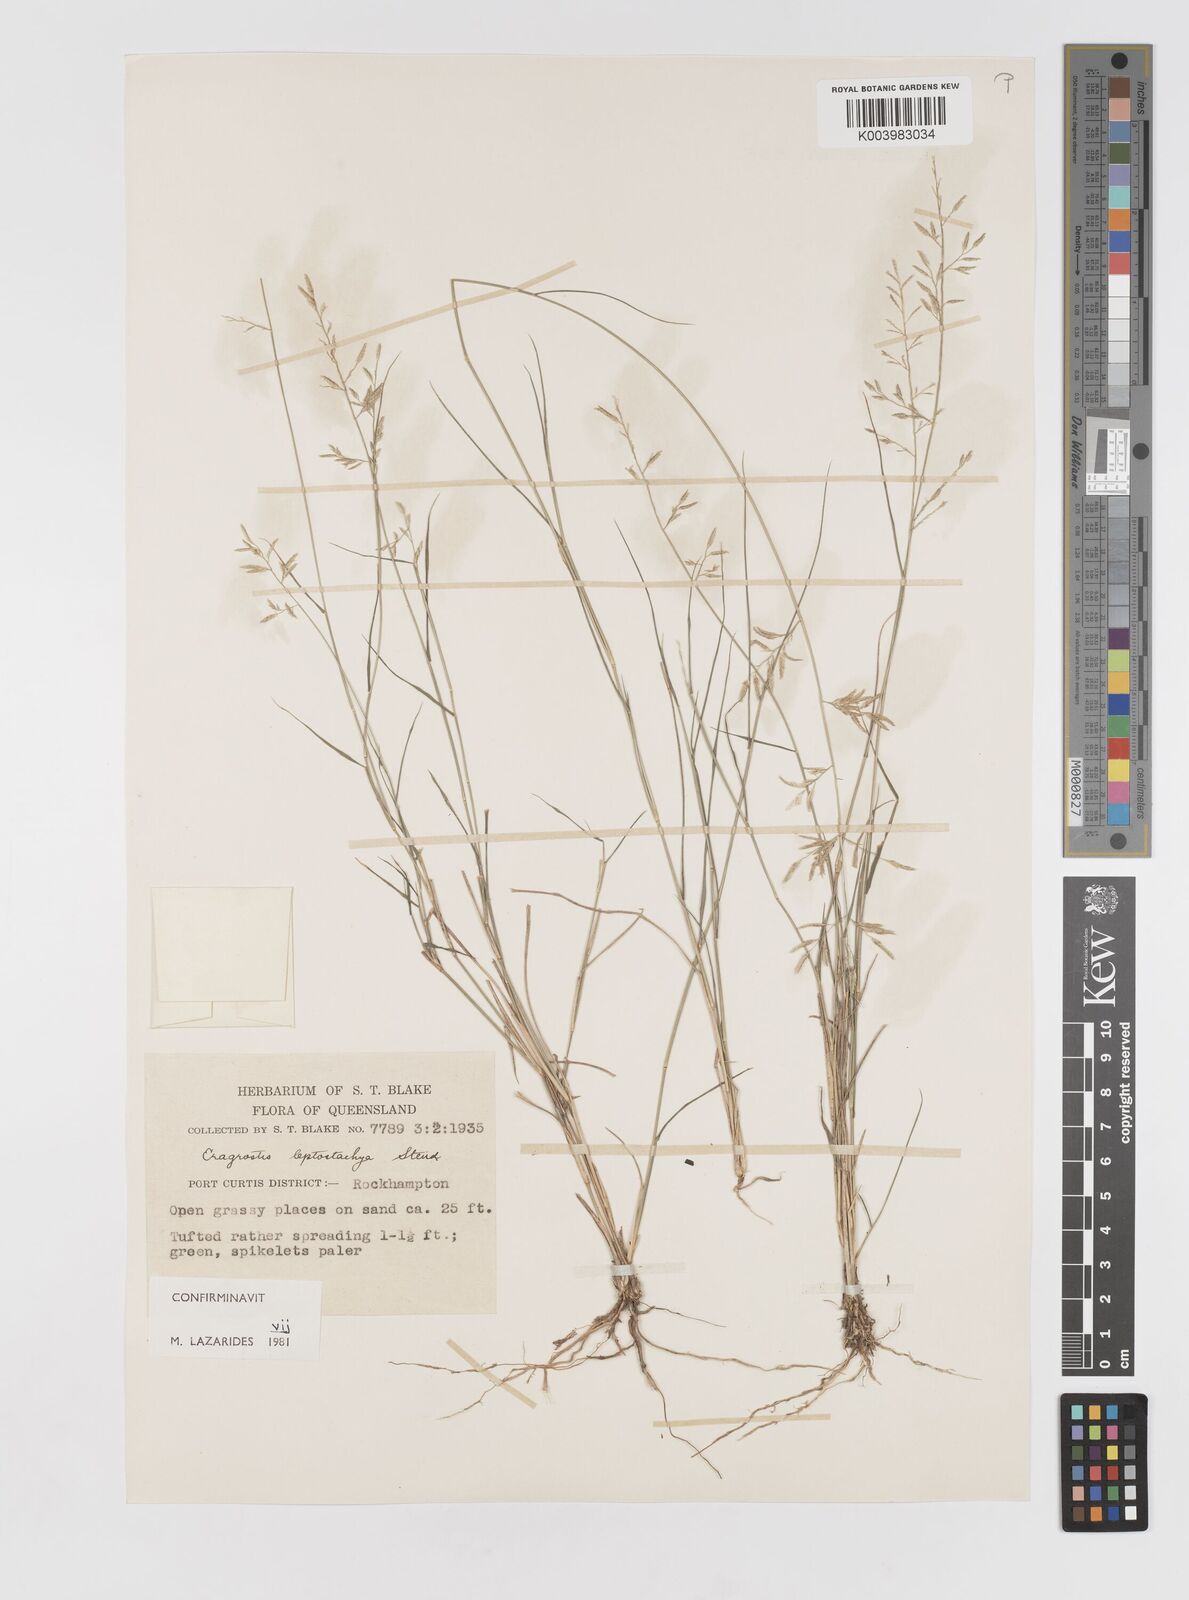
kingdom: Plantae
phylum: Tracheophyta
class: Liliopsida
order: Poales
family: Poaceae
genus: Eragrostis
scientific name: Eragrostis leptostachya
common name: Australian lovegrass
